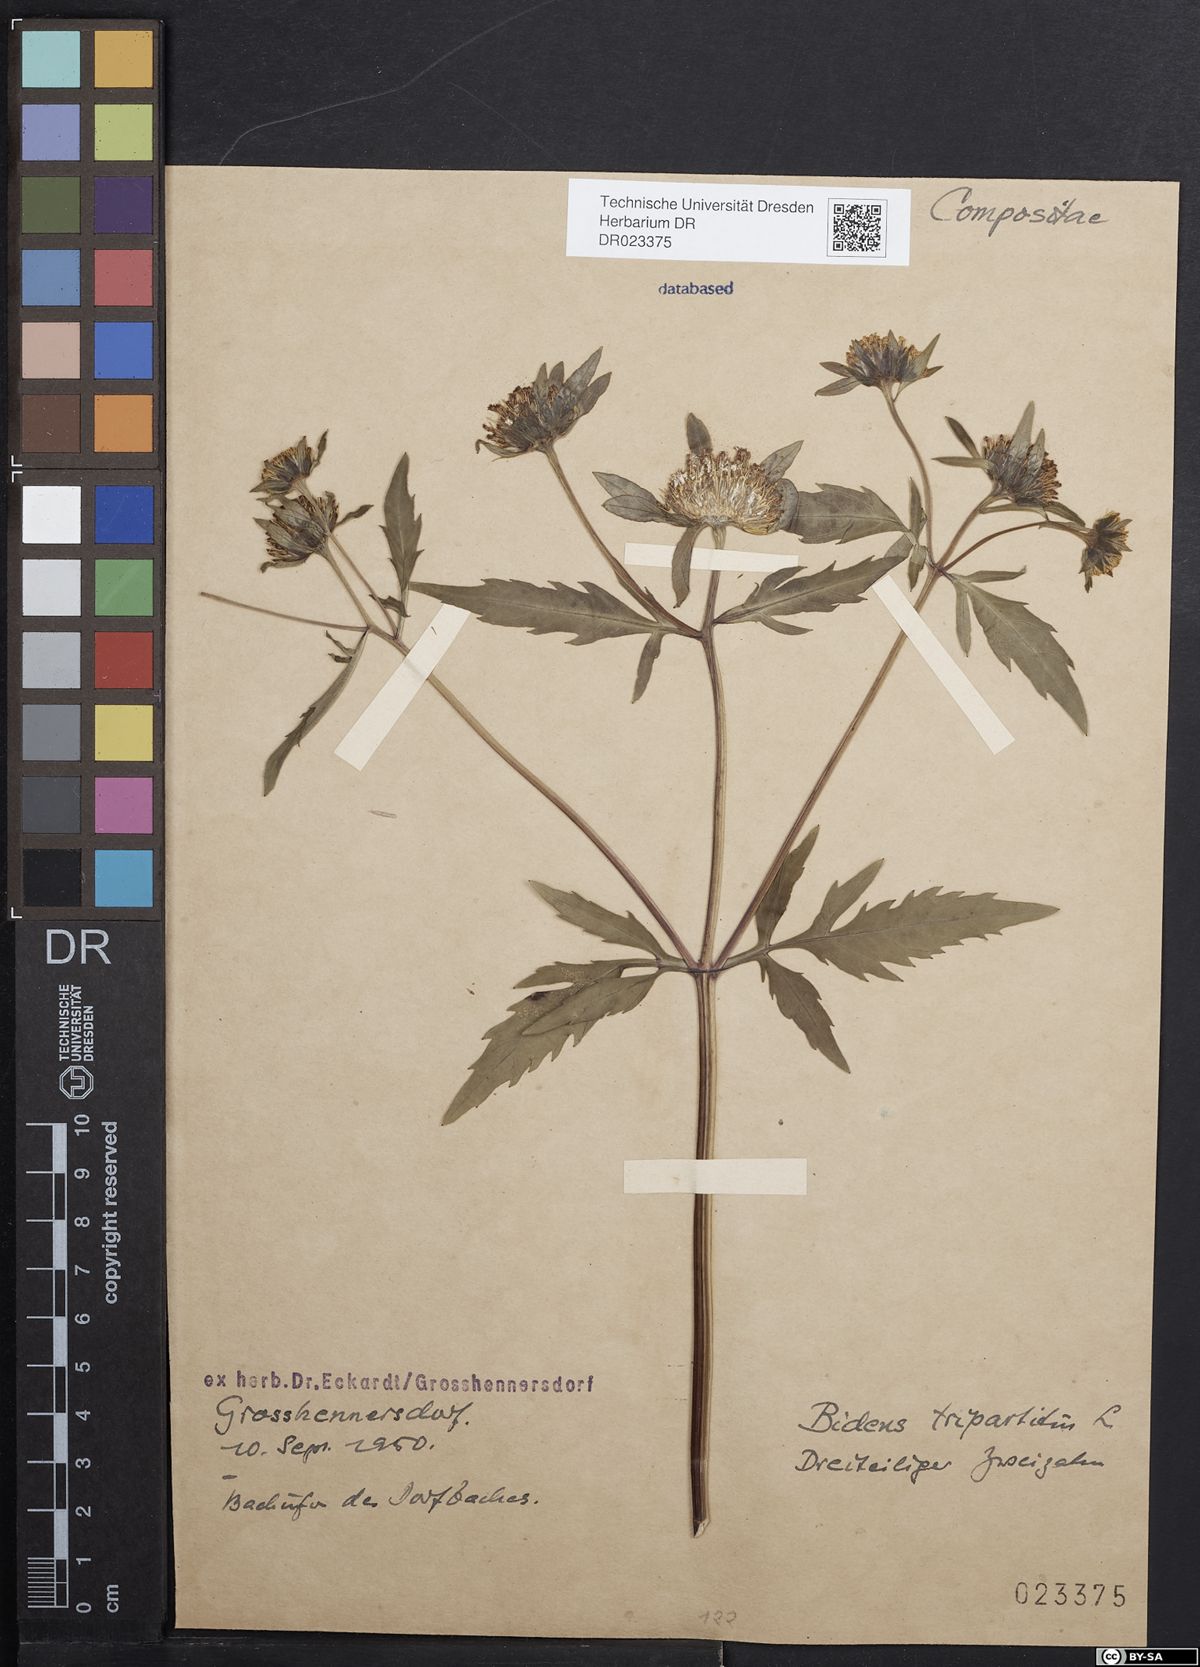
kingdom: Plantae
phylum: Tracheophyta
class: Magnoliopsida
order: Asterales
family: Asteraceae
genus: Bidens
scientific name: Bidens tripartita
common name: Trifid bur-marigold
